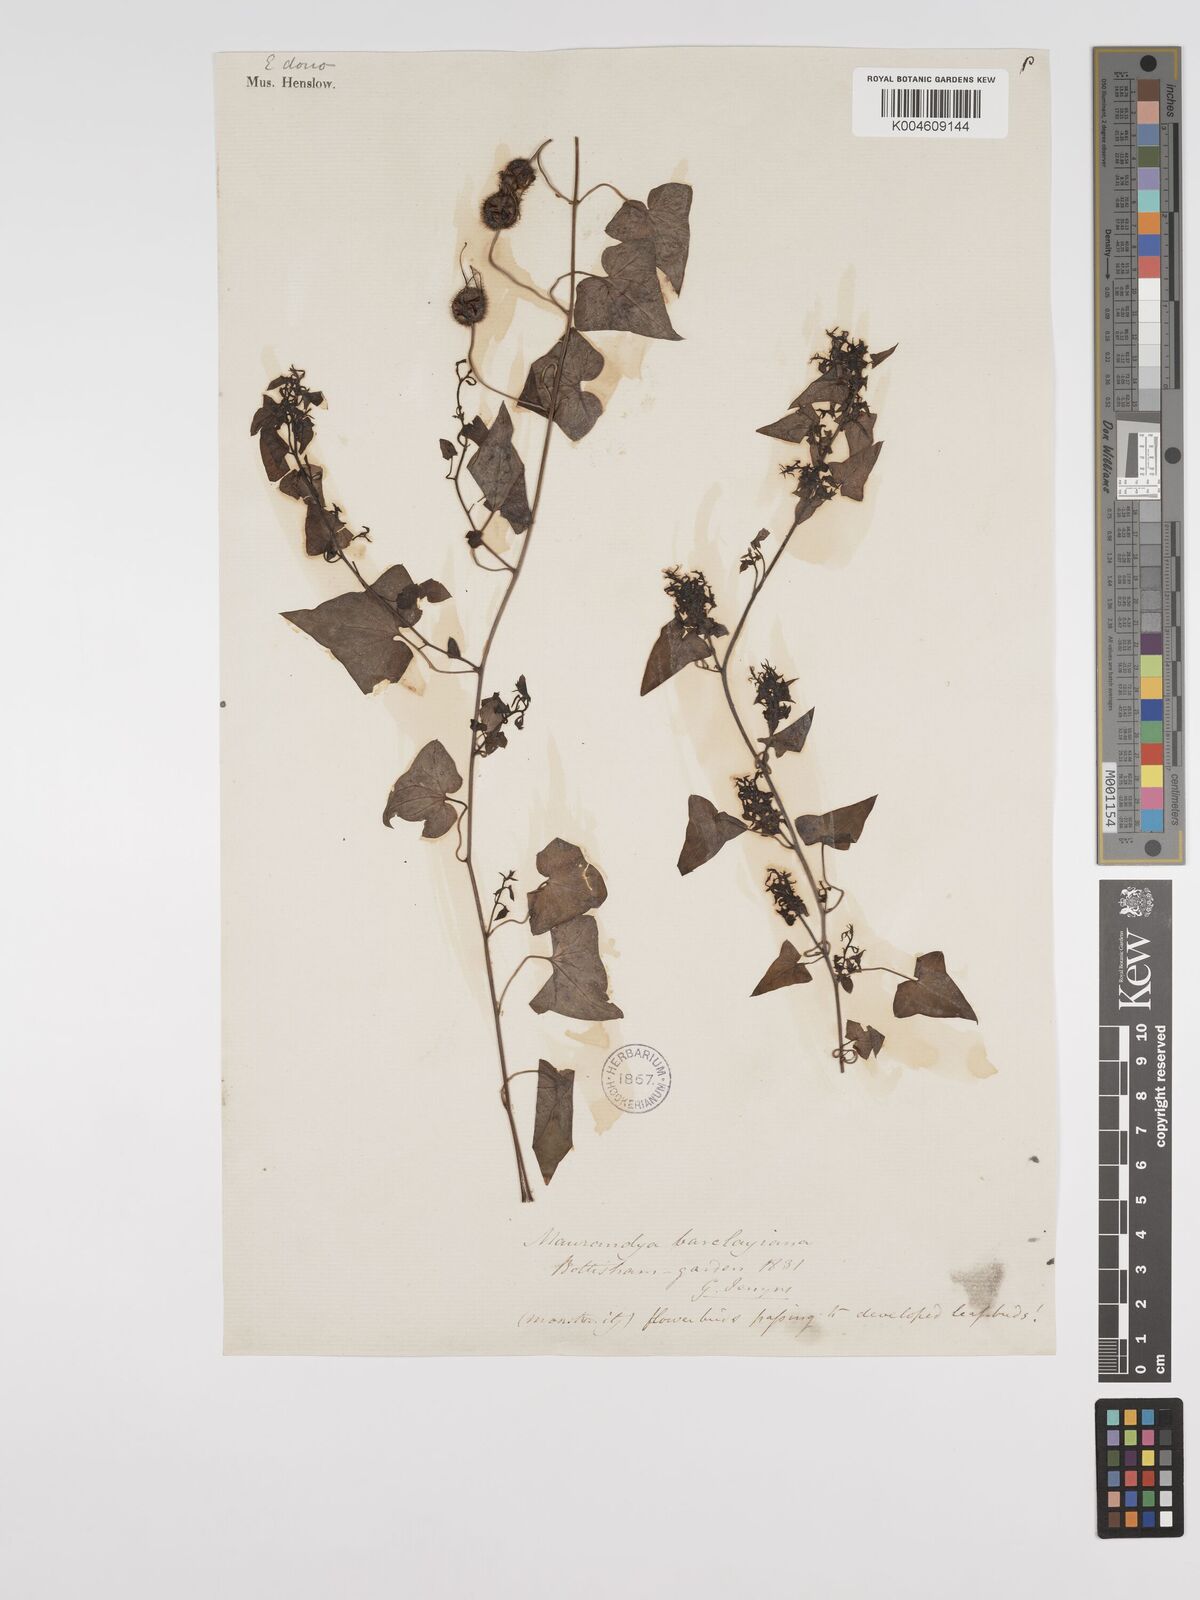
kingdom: Plantae
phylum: Tracheophyta
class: Magnoliopsida
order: Lamiales
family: Plantaginaceae
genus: Maurandya
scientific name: Maurandya barclayana
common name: Mexican viper
